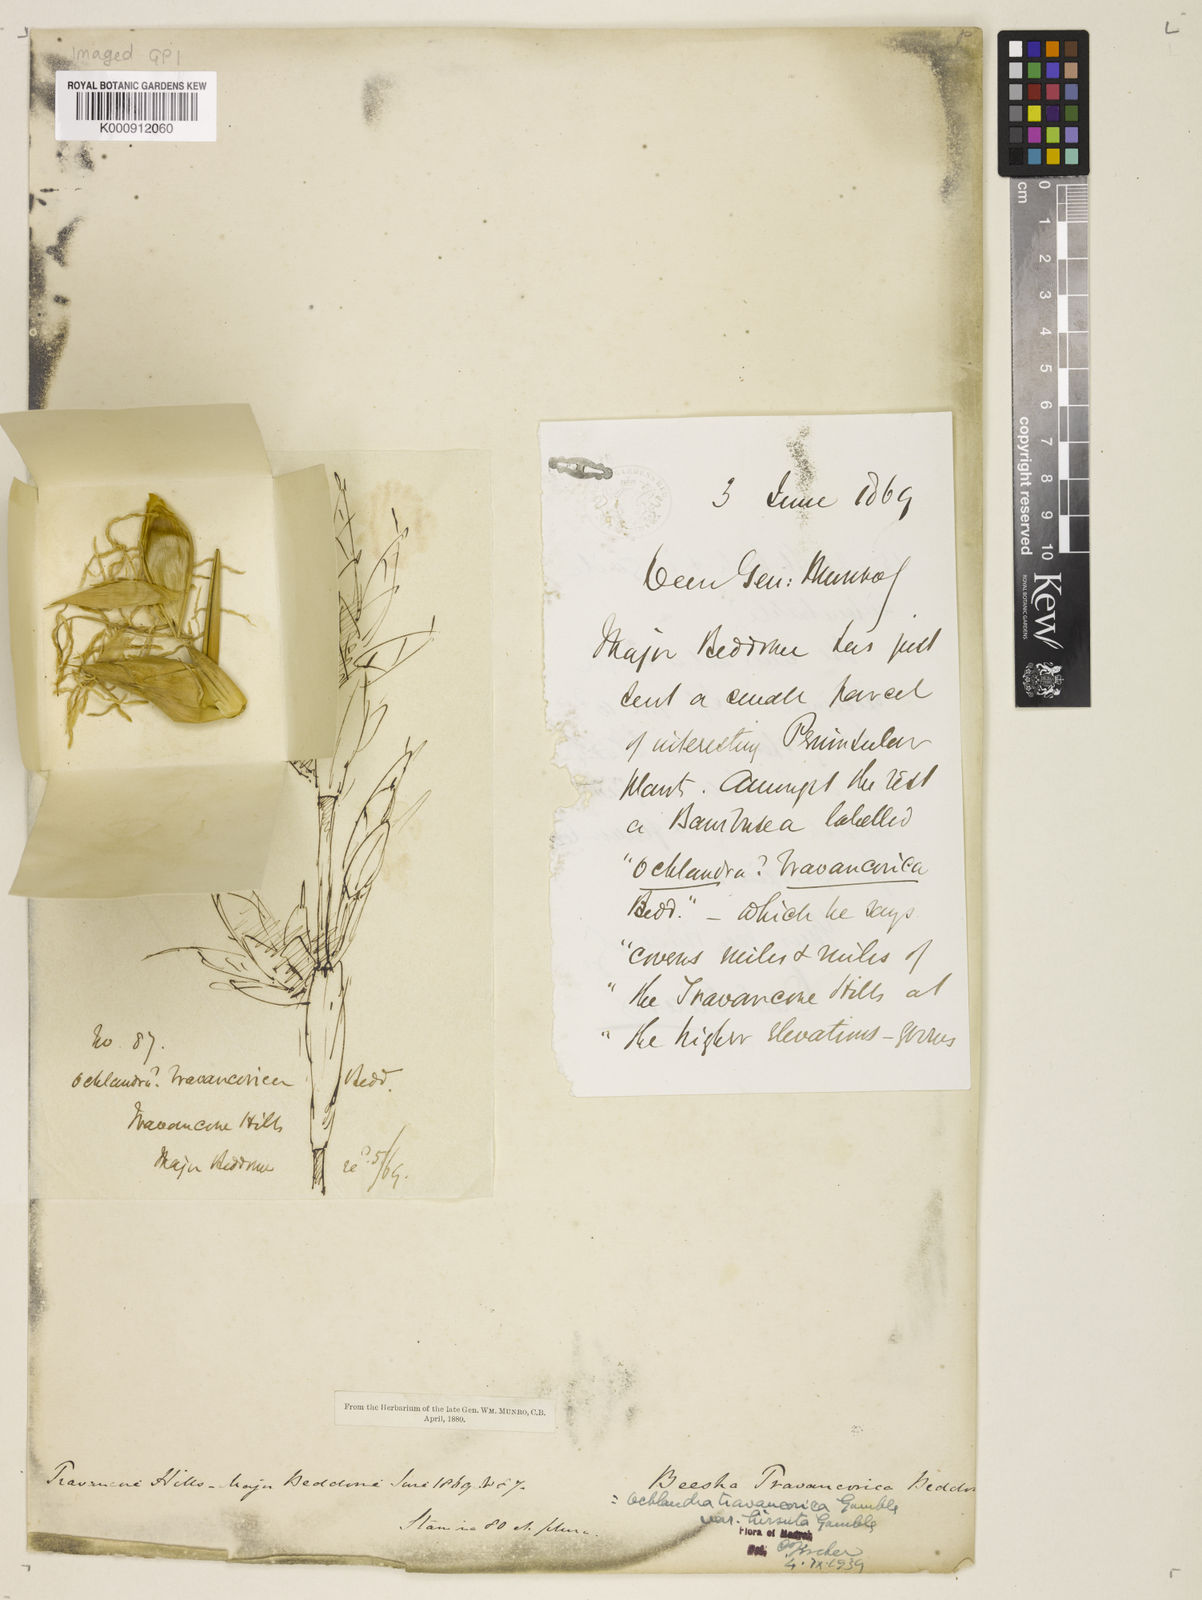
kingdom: Plantae
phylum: Tracheophyta
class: Liliopsida
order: Poales
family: Poaceae
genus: Ochlandra
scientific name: Ochlandra travancorica
